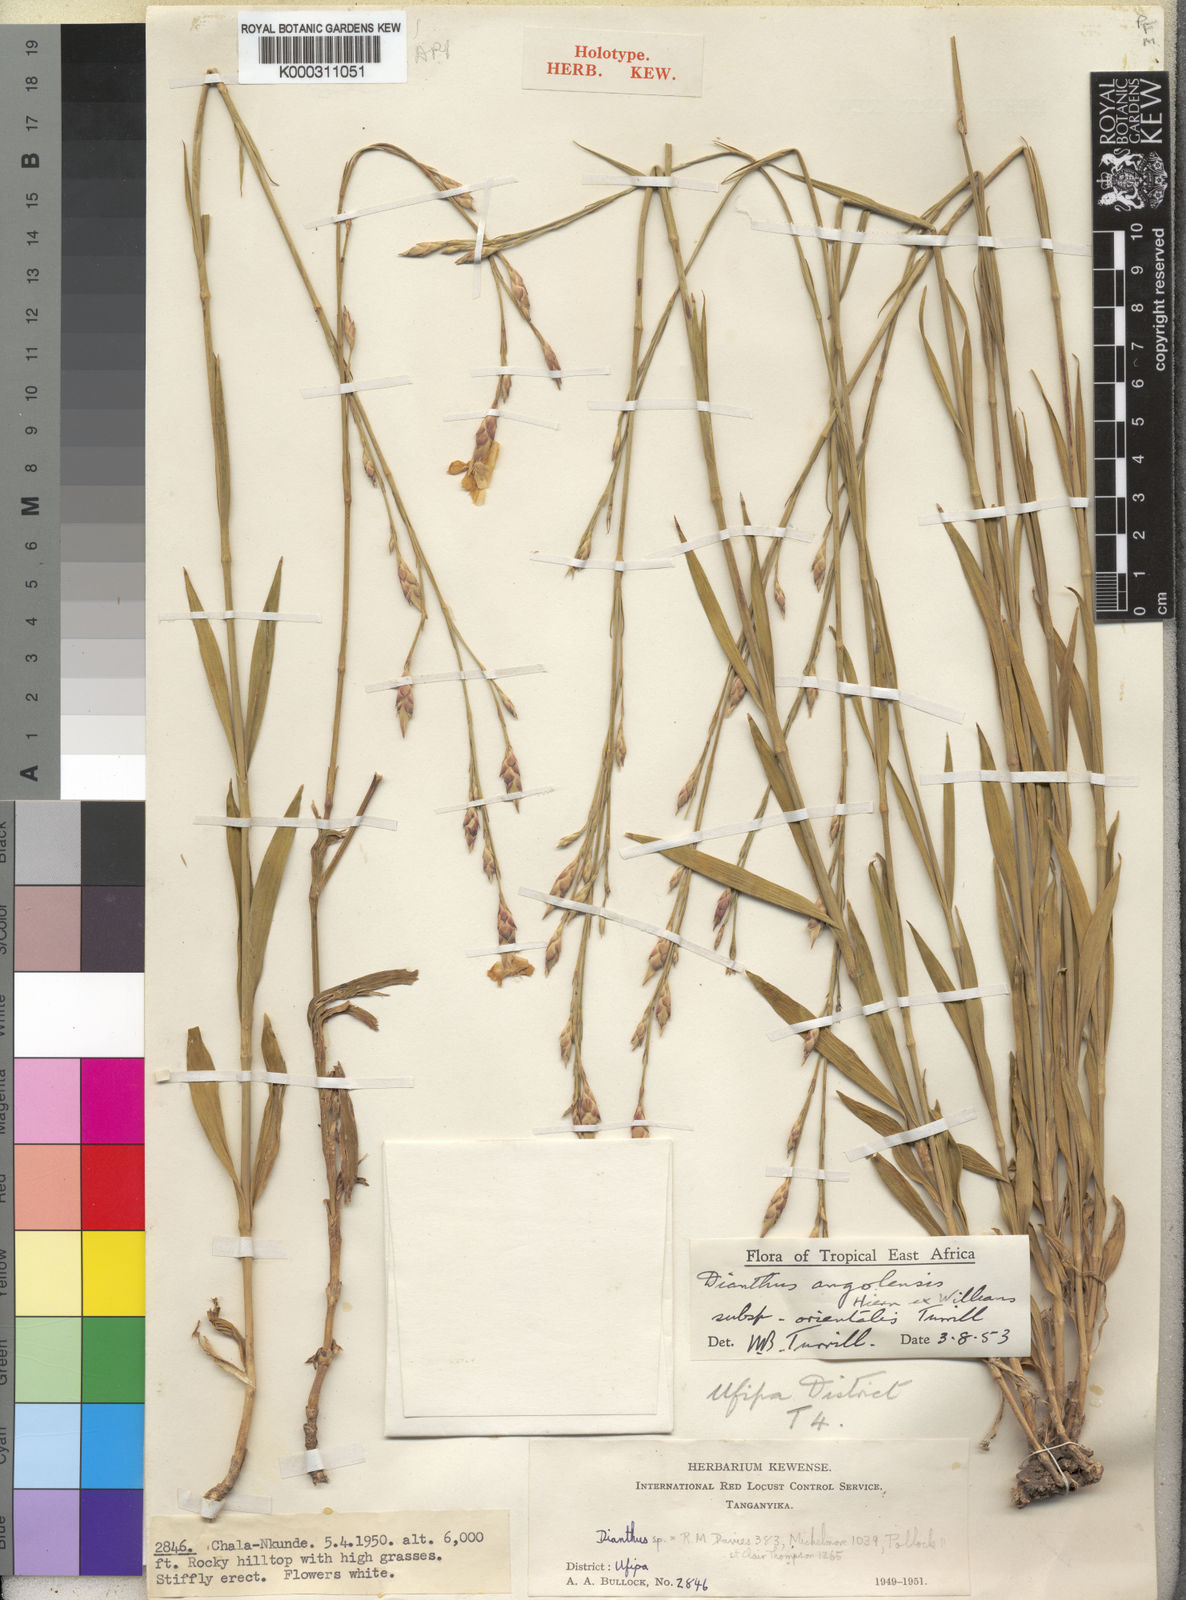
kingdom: Plantae
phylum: Tracheophyta
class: Magnoliopsida
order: Caryophyllales
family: Caryophyllaceae
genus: Dianthus
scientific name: Dianthus excelsus
